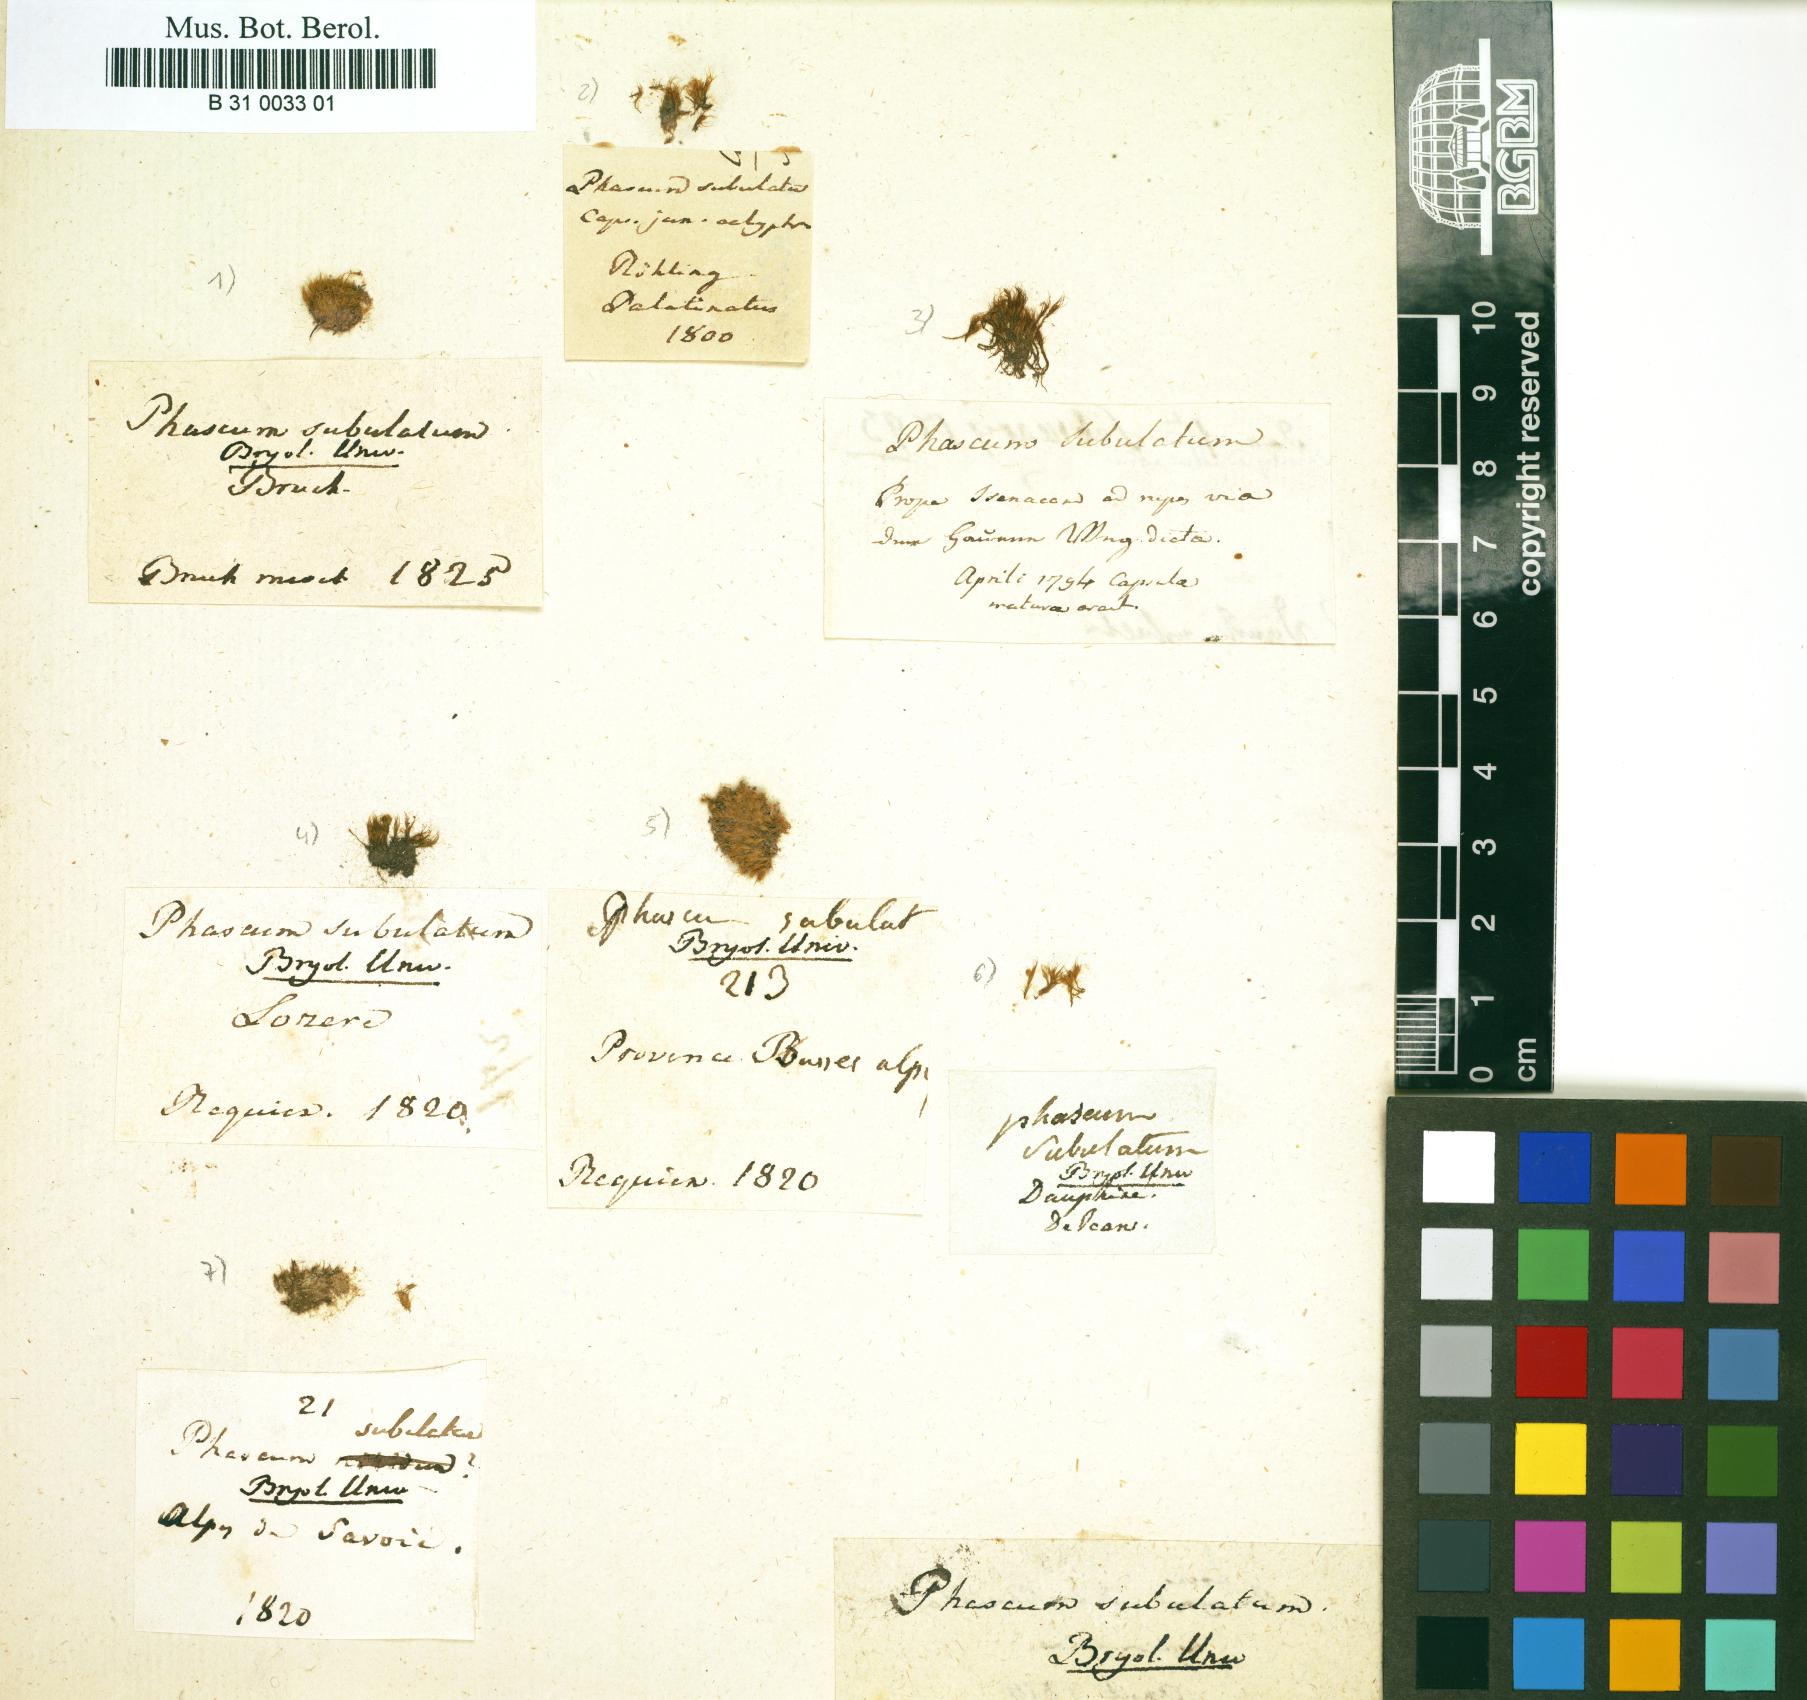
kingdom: Plantae
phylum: Bryophyta
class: Bryopsida
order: Dicranales
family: Ditrichaceae
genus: Pleuridium
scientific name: Pleuridium subulatum
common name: Awl-leaved earth-moss
